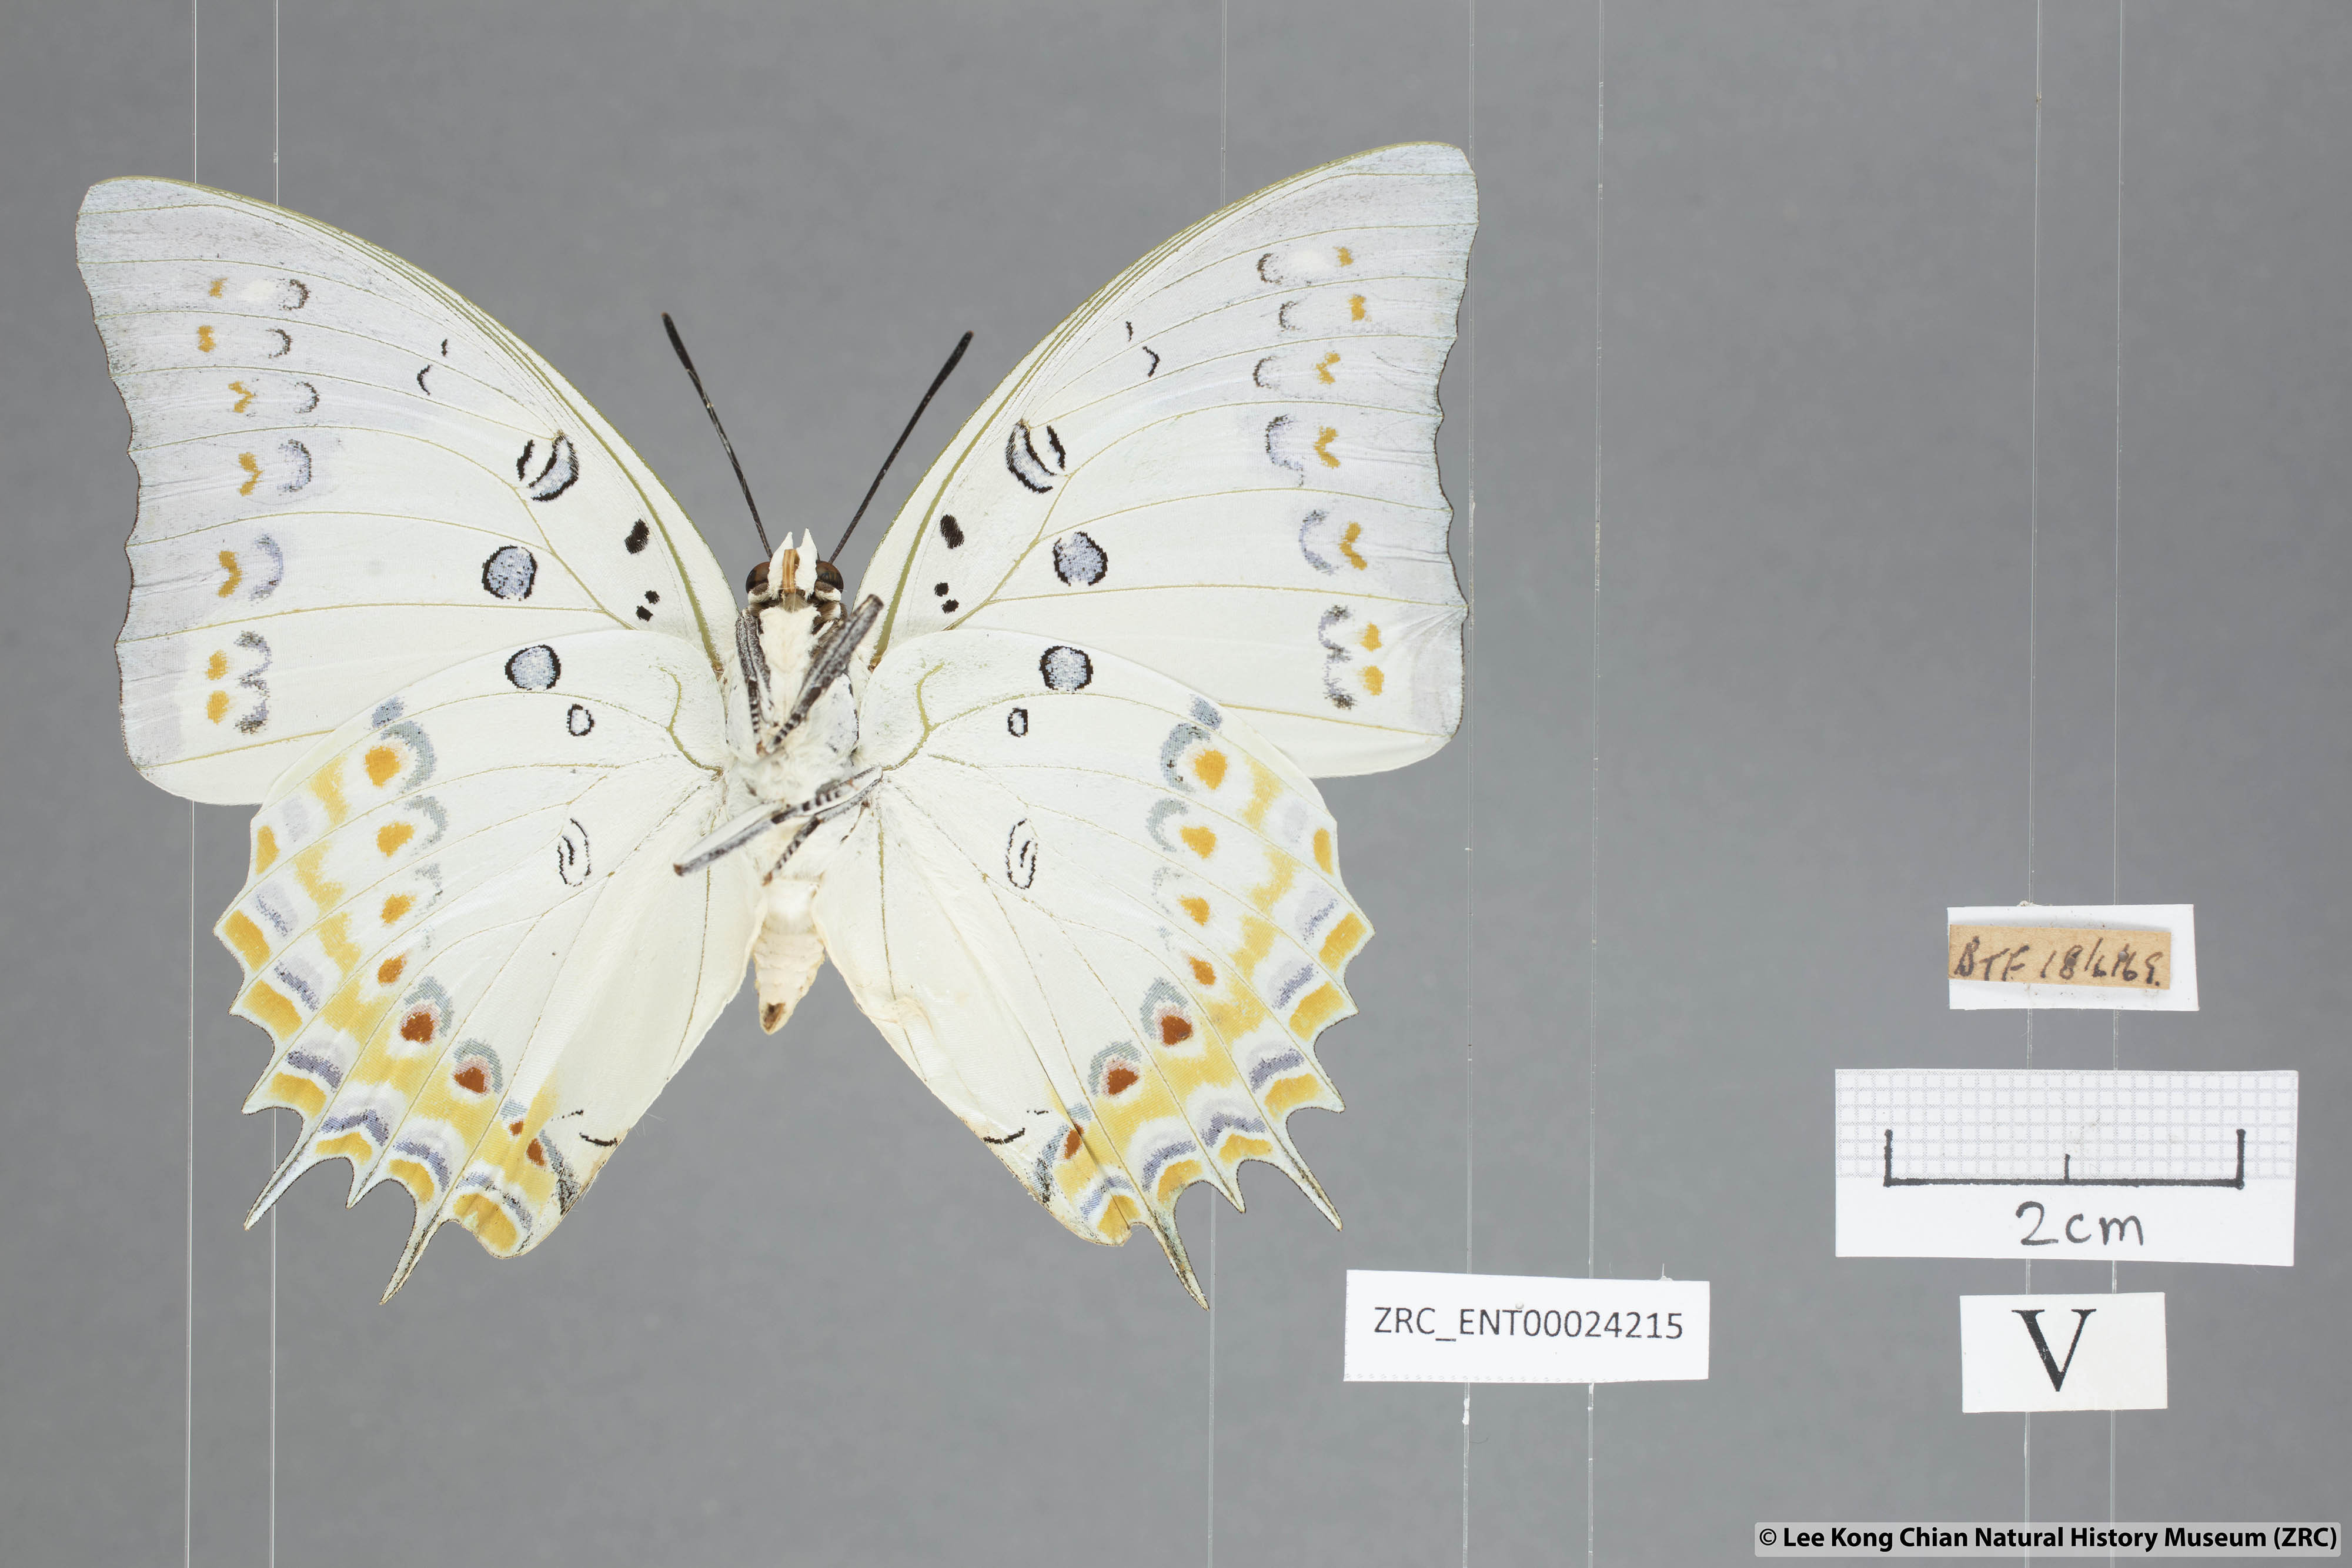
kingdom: Animalia
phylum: Arthropoda
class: Insecta
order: Lepidoptera
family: Nymphalidae
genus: Polyura
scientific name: Polyura delphis
